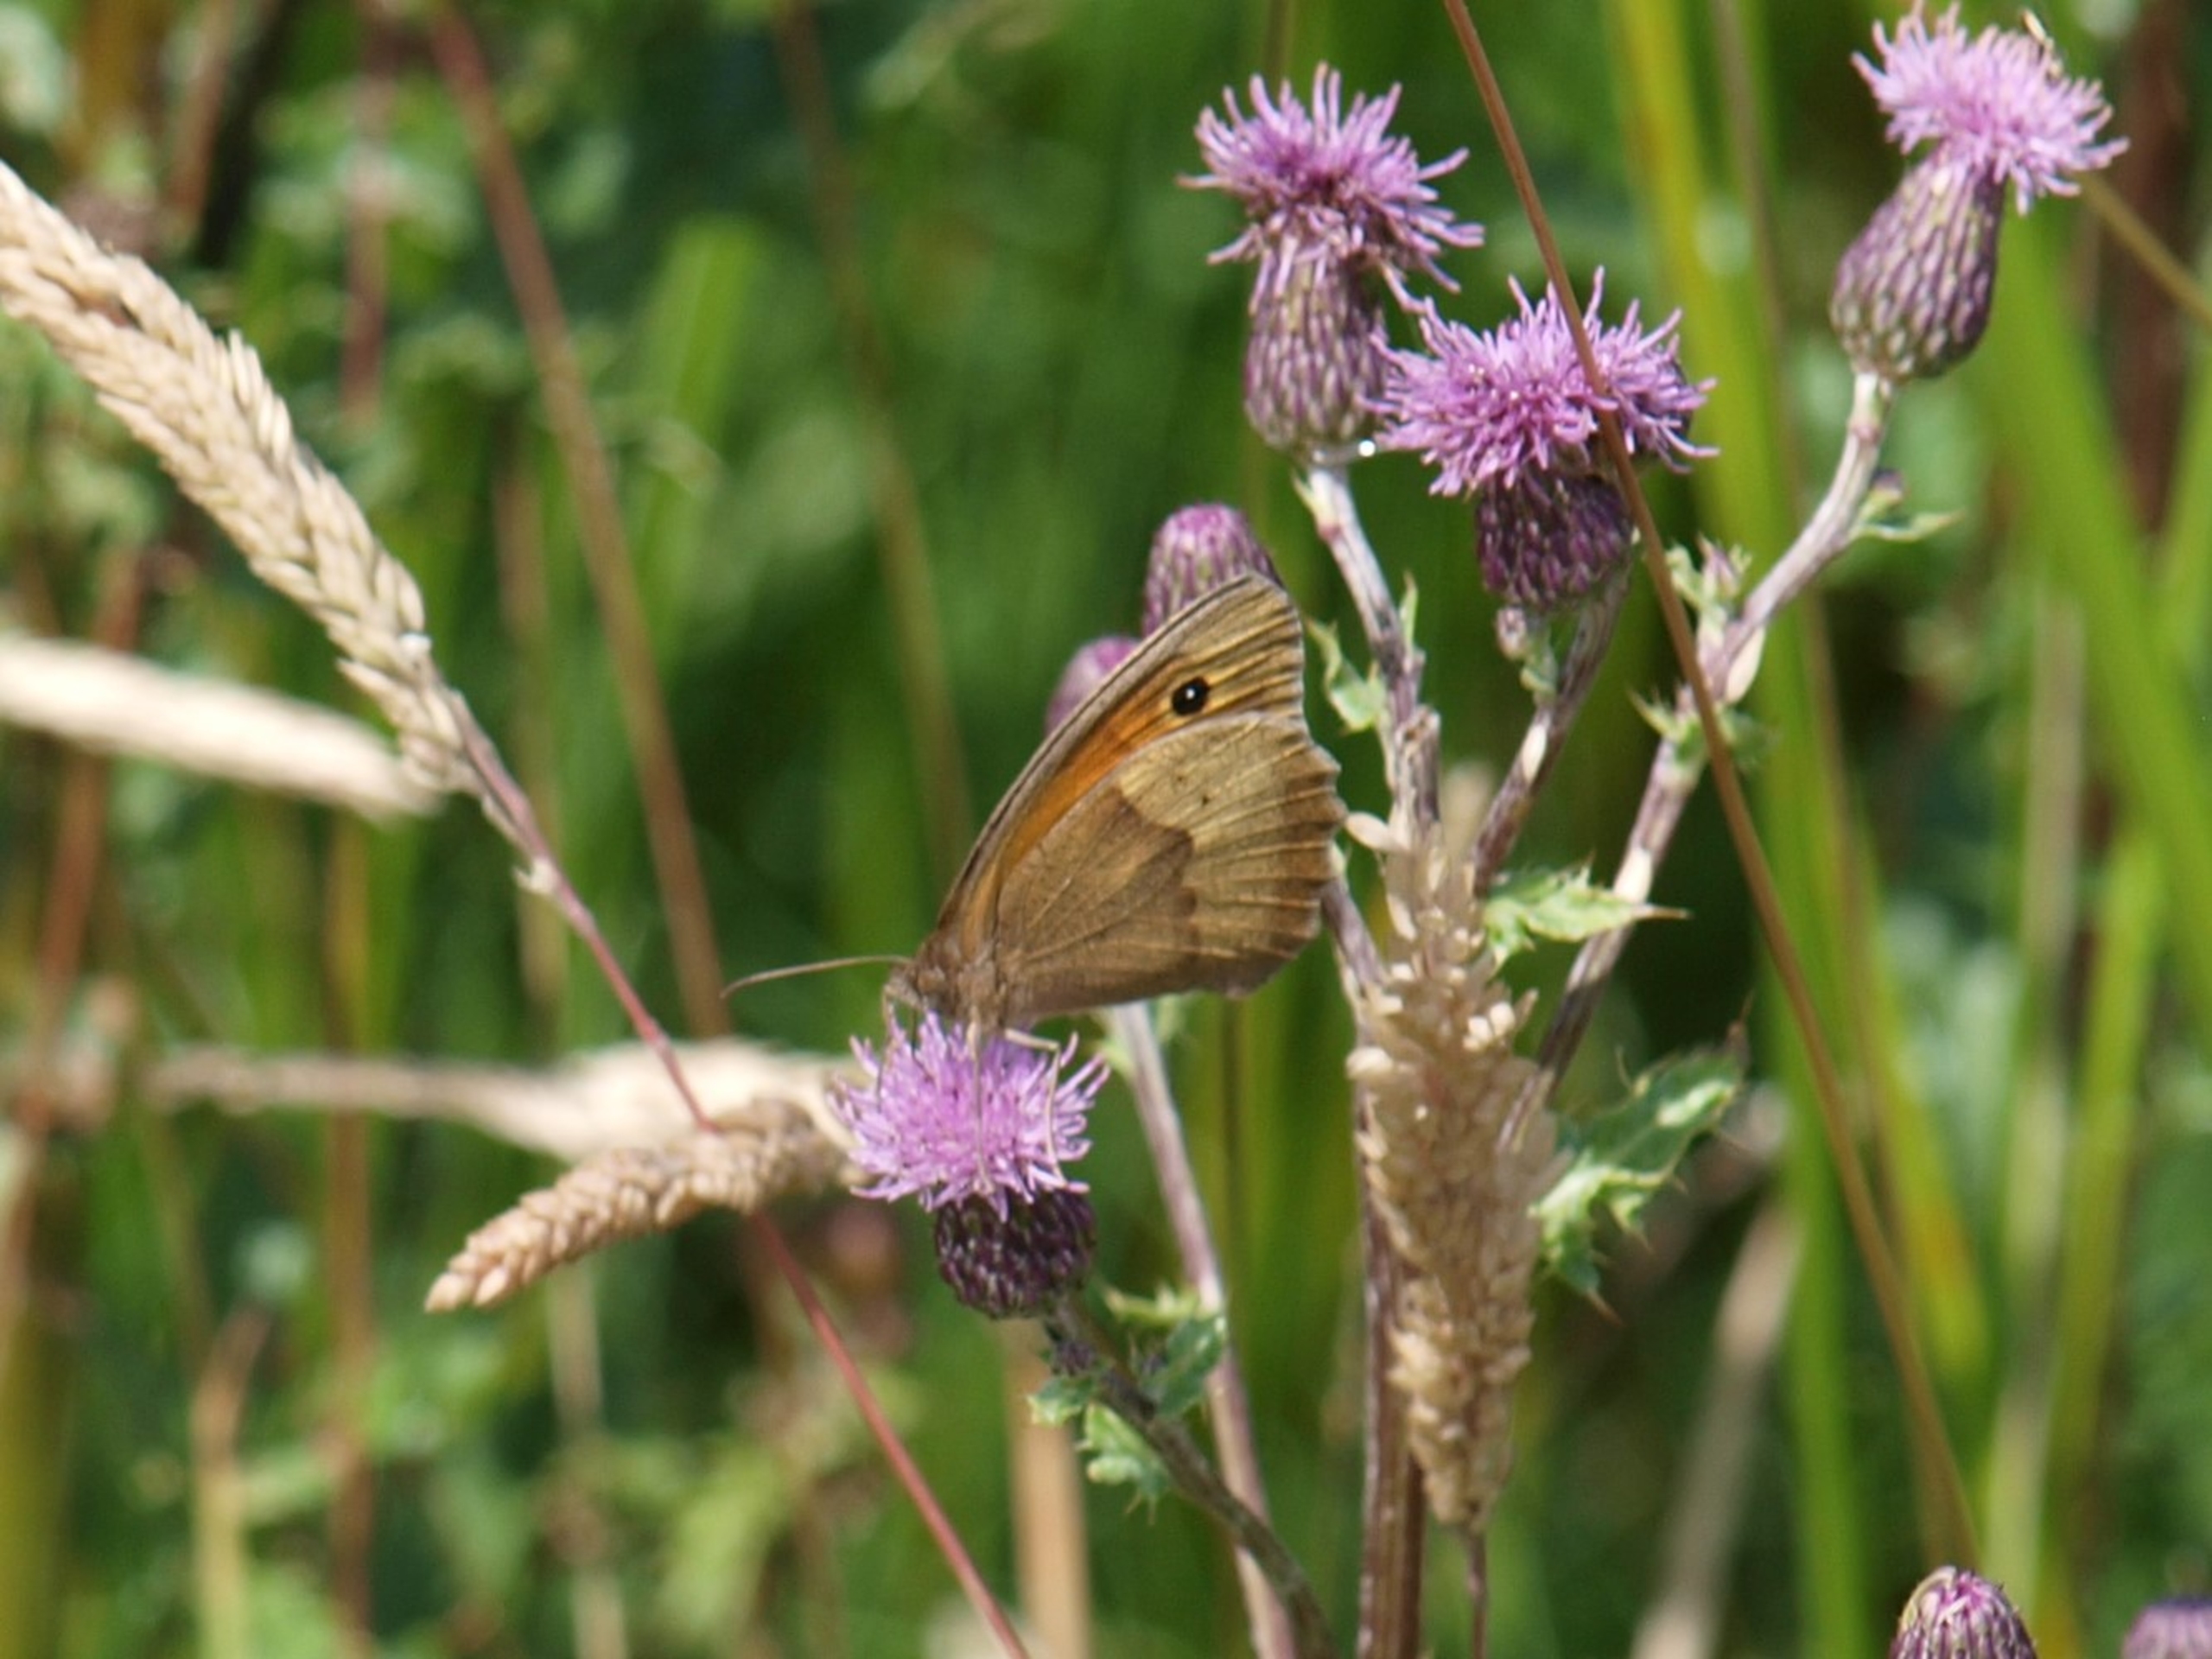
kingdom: Animalia
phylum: Arthropoda
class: Insecta
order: Lepidoptera
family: Nymphalidae
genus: Maniola
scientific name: Maniola jurtina
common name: Græsrandøje
